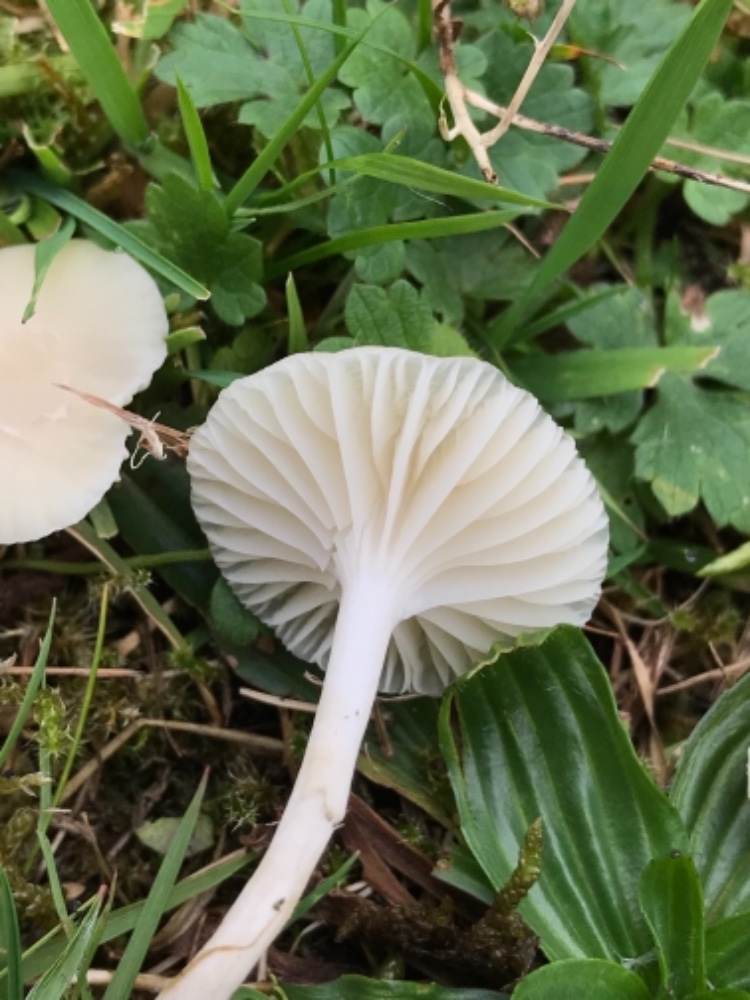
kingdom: Fungi
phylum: Basidiomycota
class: Agaricomycetes
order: Agaricales
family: Hygrophoraceae
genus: Cuphophyllus
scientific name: Cuphophyllus virgineus
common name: snehvid vokshat
